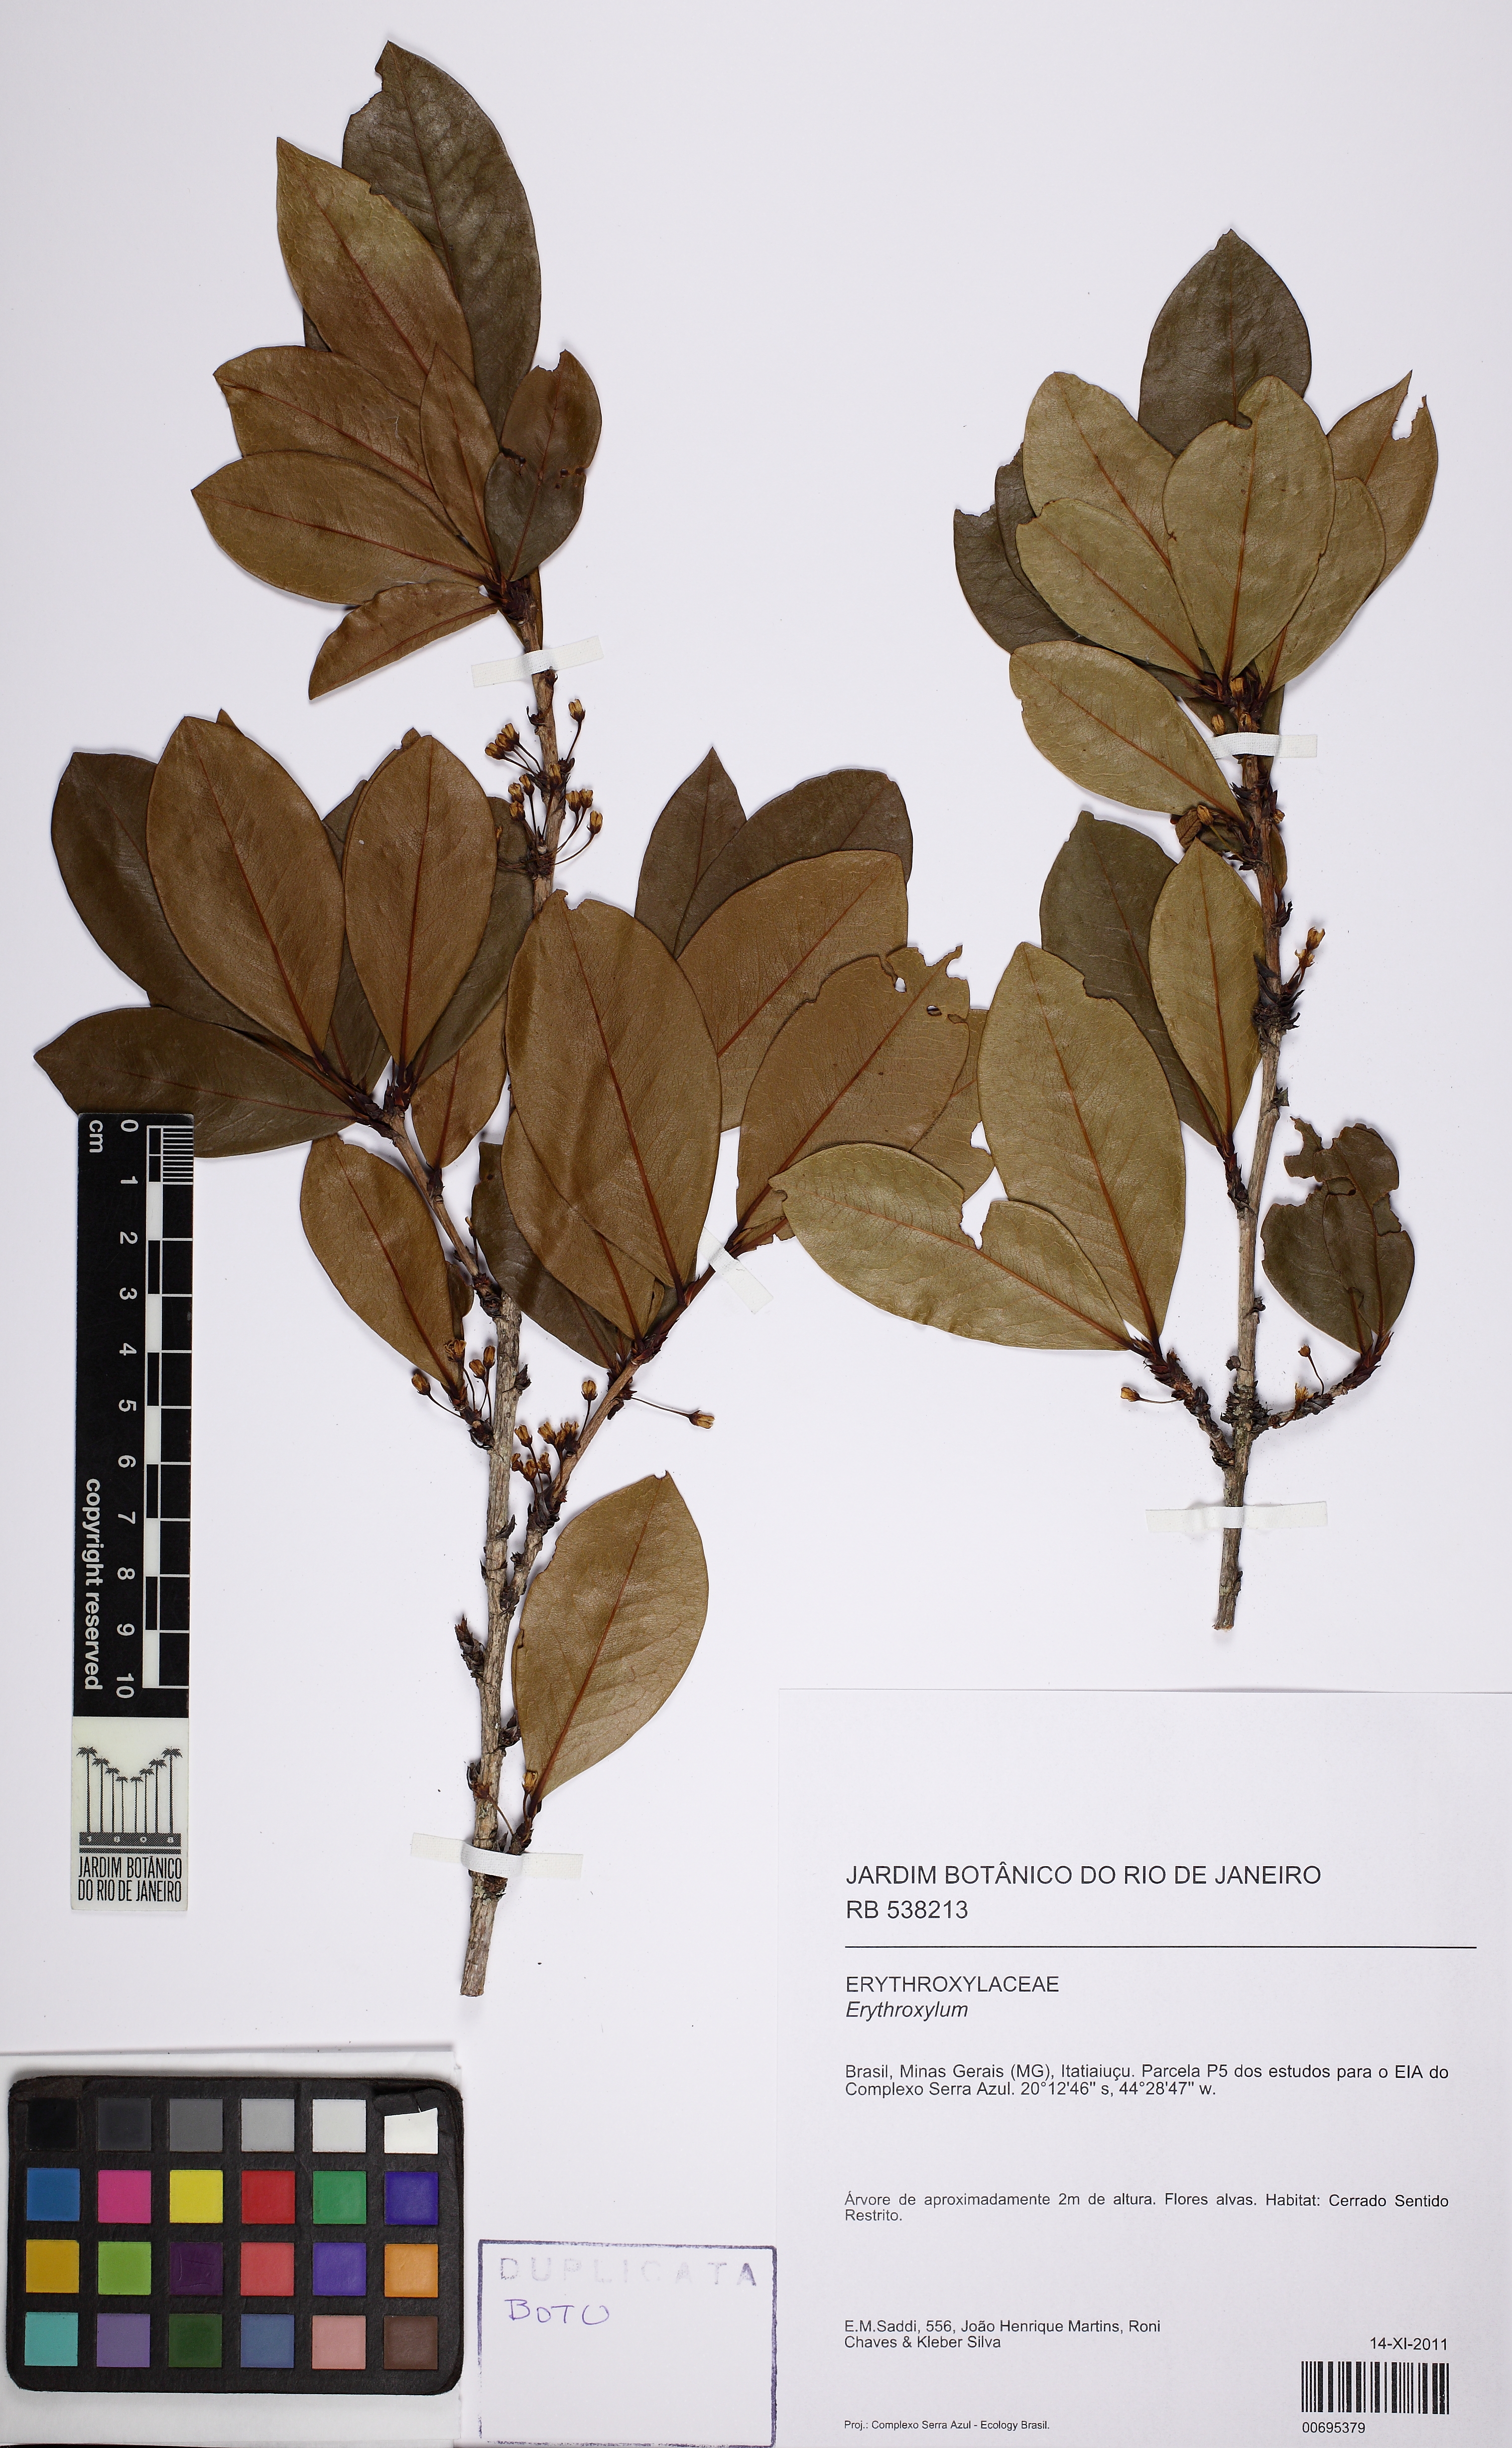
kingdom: Plantae
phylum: Tracheophyta
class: Magnoliopsida
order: Malpighiales
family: Erythroxylaceae
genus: Erythroxylum
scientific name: Erythroxylum daphnites
